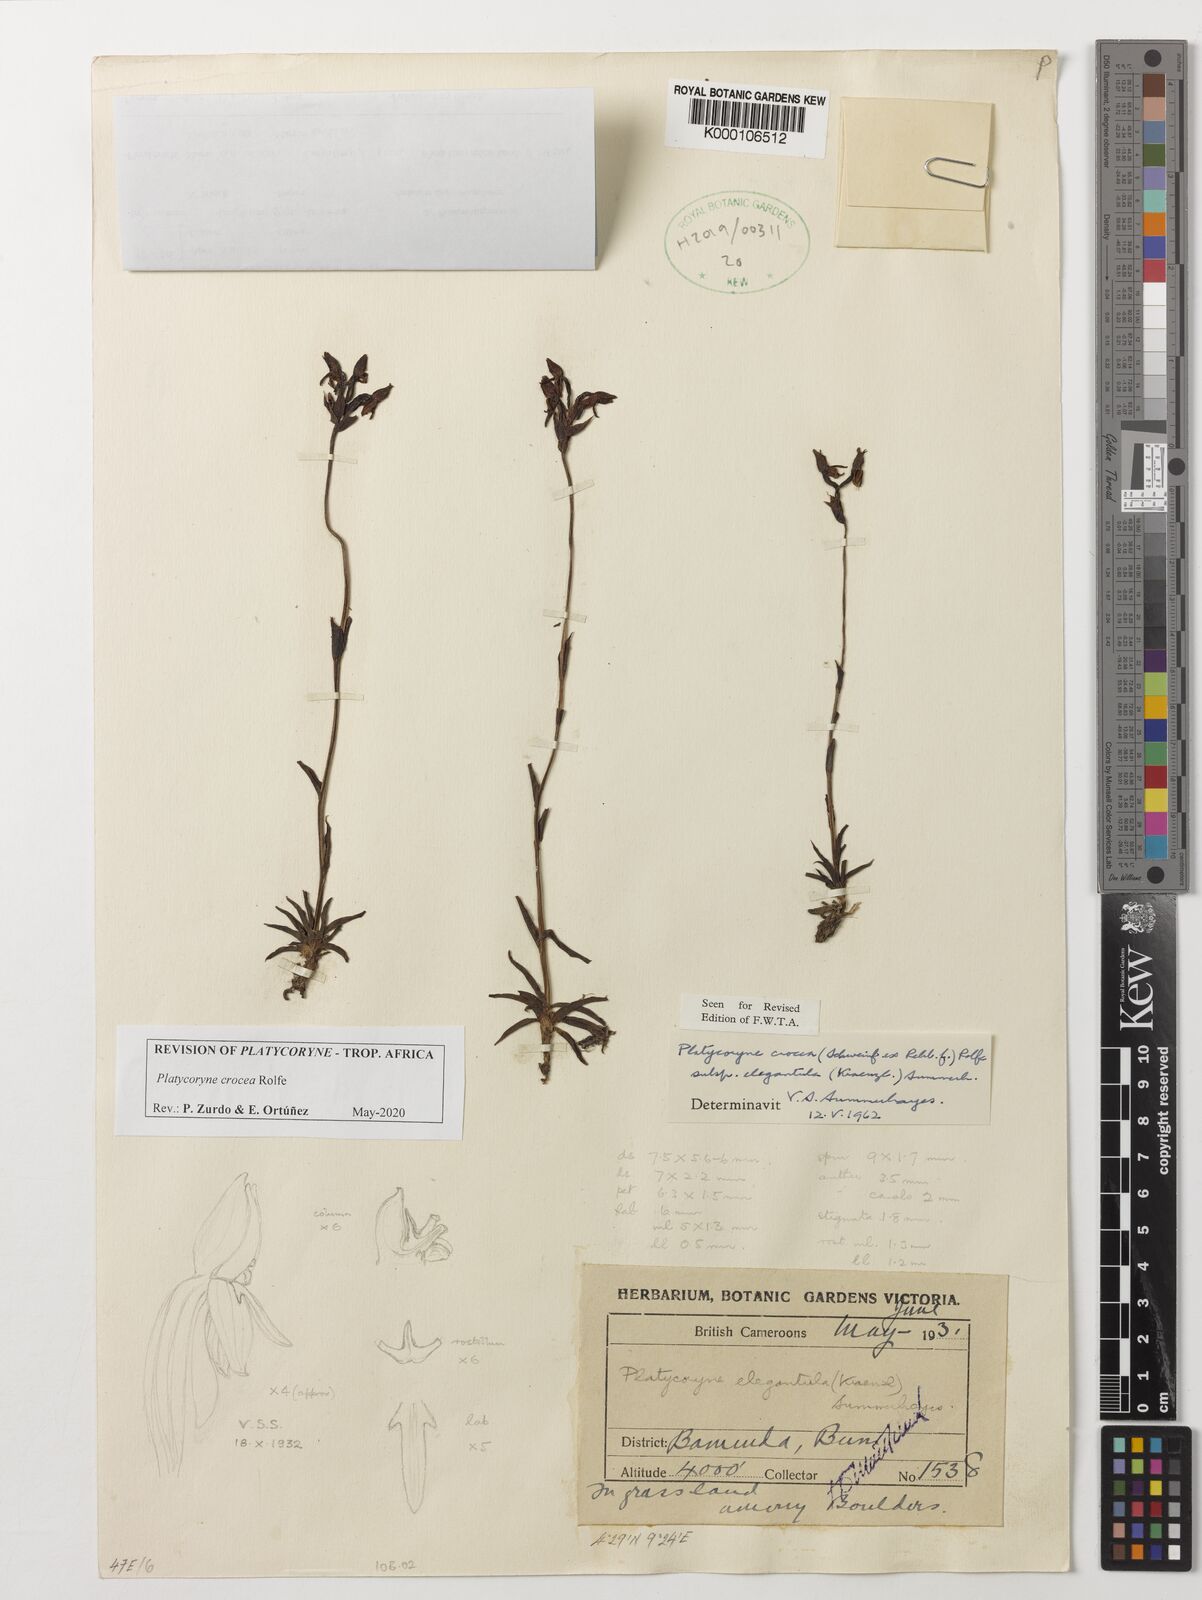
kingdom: Plantae
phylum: Tracheophyta
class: Liliopsida
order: Asparagales
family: Orchidaceae
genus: Platycoryne
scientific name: Platycoryne crocea
